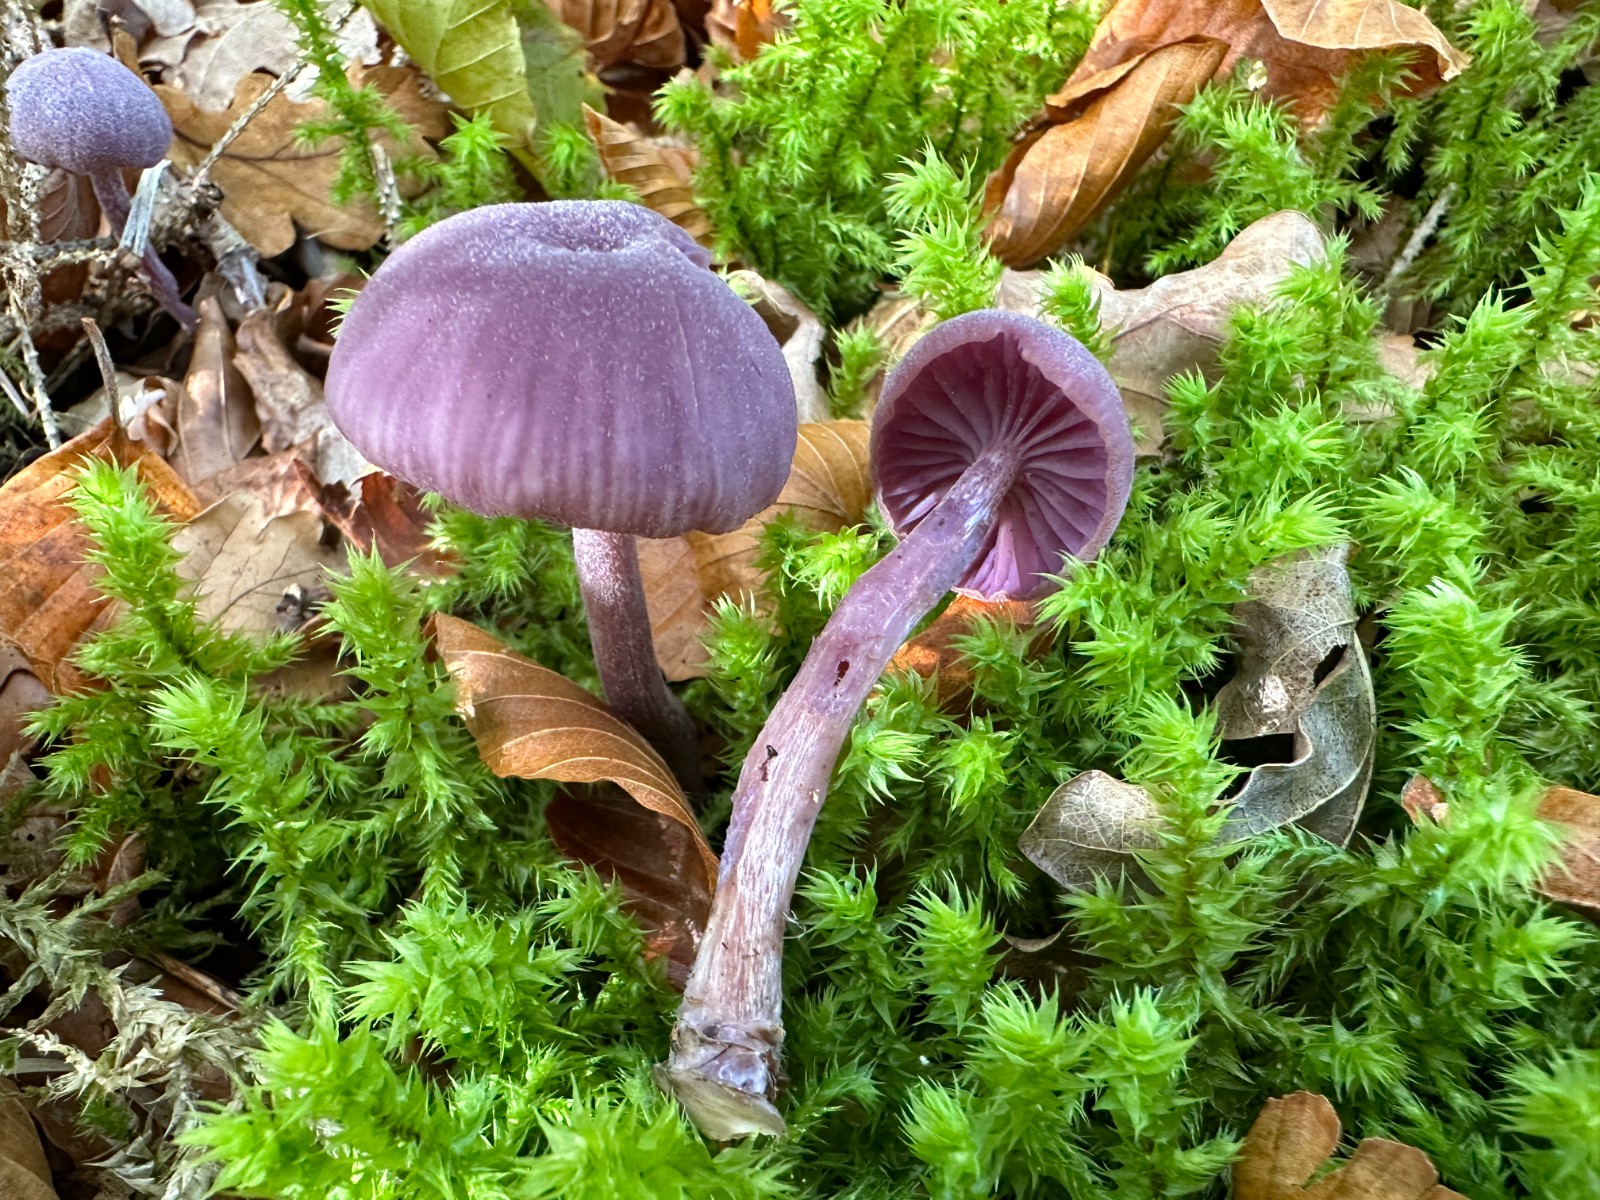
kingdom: Fungi
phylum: Basidiomycota
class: Agaricomycetes
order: Agaricales
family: Hydnangiaceae
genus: Laccaria
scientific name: Laccaria amethystina
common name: violet ametysthat
